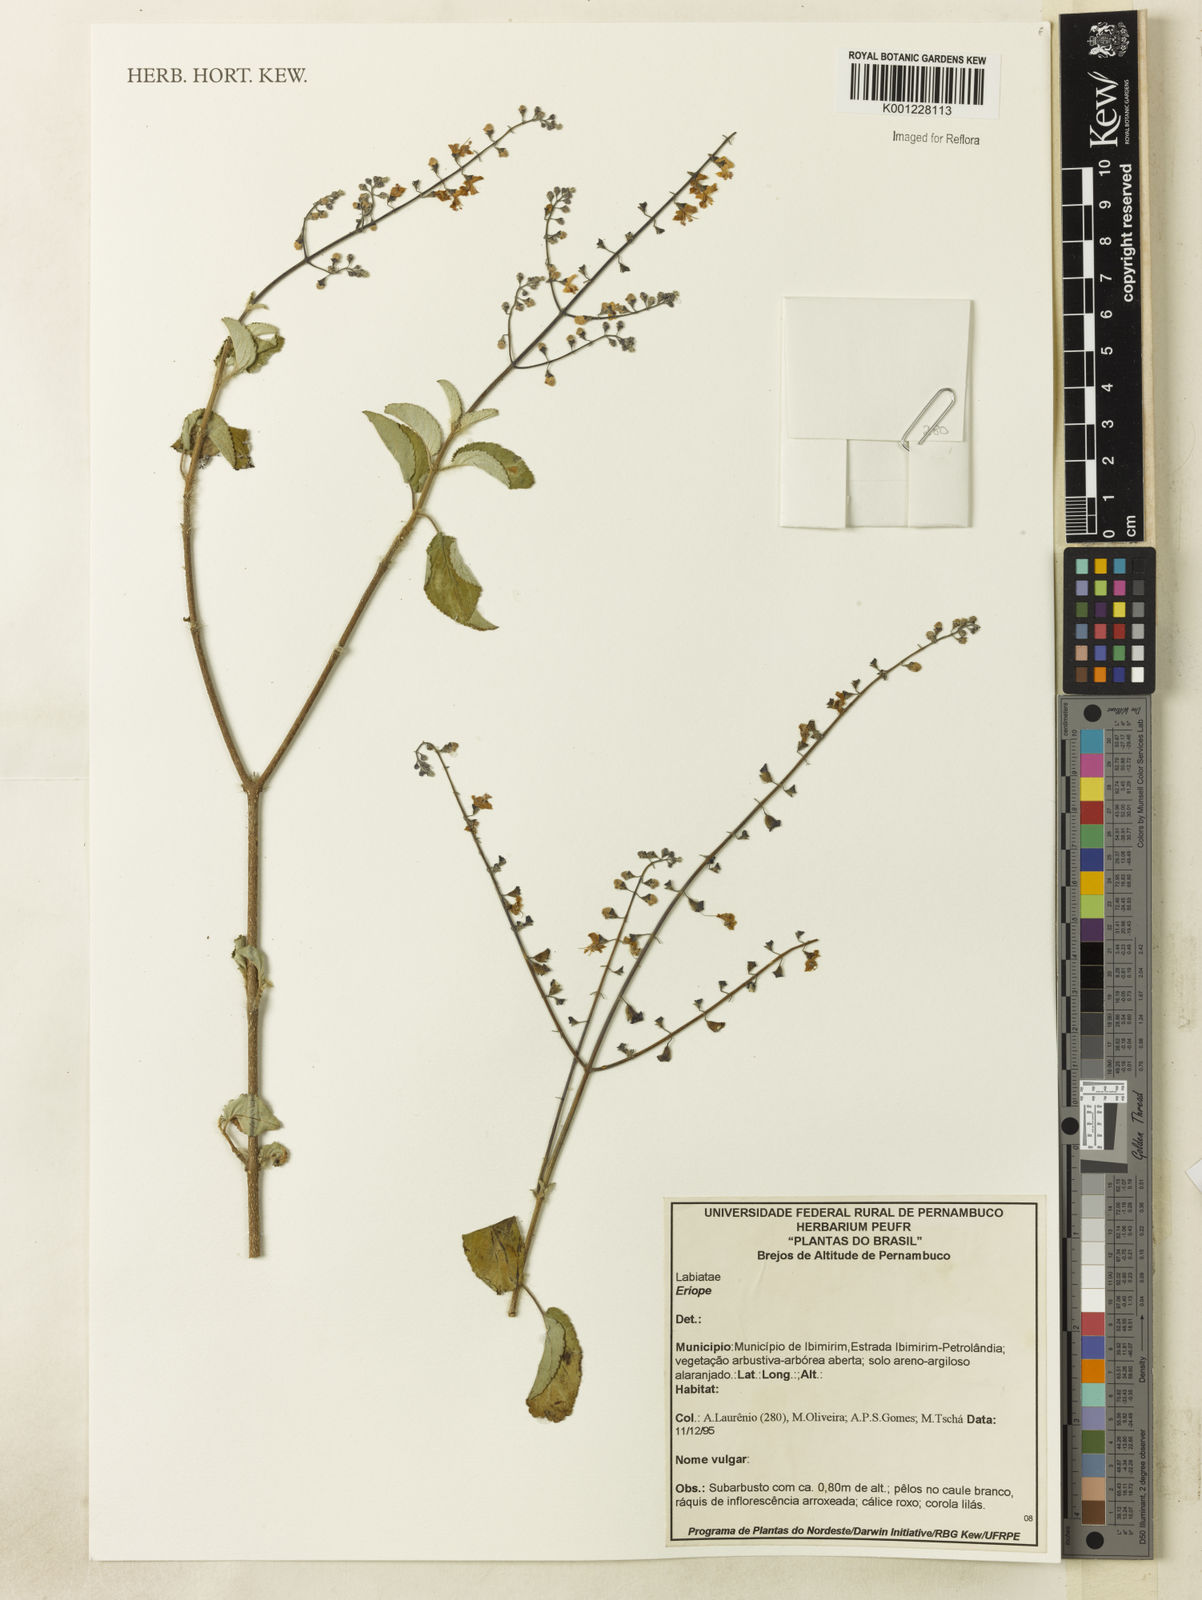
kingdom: Plantae
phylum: Tracheophyta
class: Magnoliopsida
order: Lamiales
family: Lamiaceae
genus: Eriope
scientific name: Eriope
